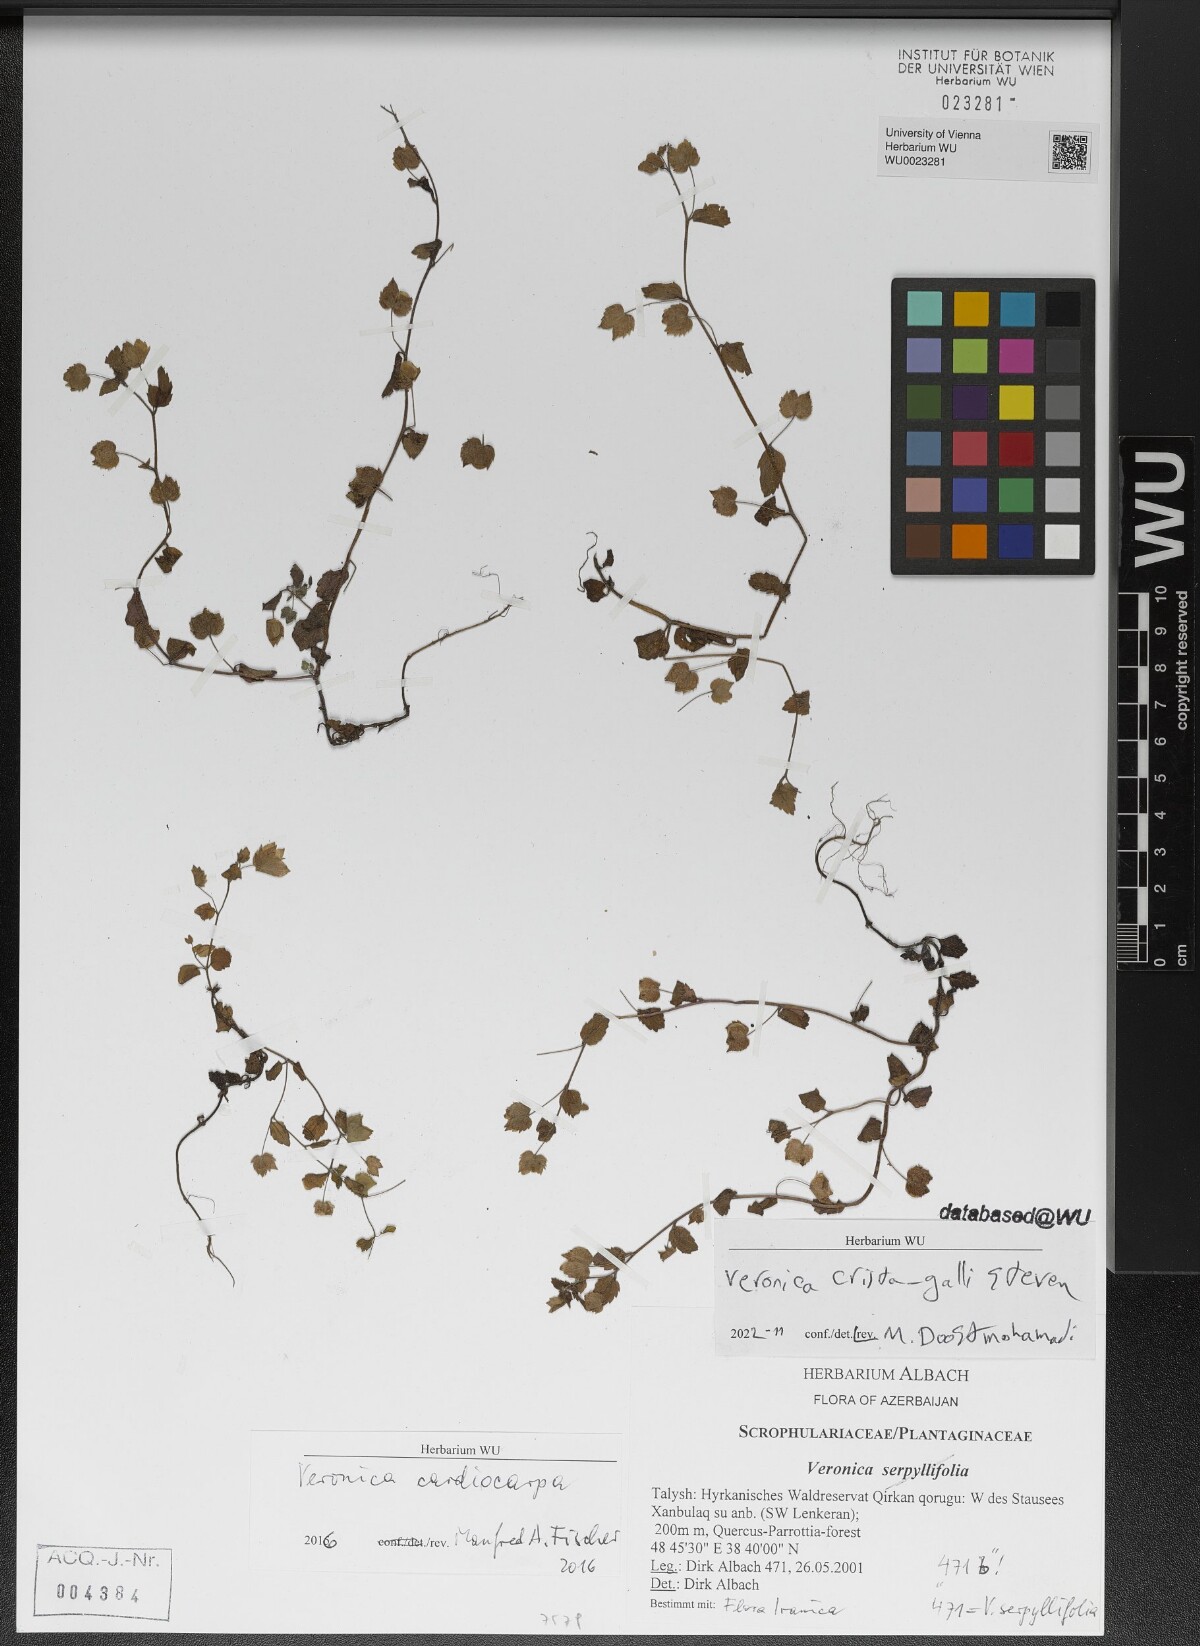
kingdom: Plantae
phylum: Tracheophyta
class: Magnoliopsida
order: Lamiales
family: Plantaginaceae
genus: Veronica
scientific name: Veronica crista-galli
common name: Crested field-speedwell
